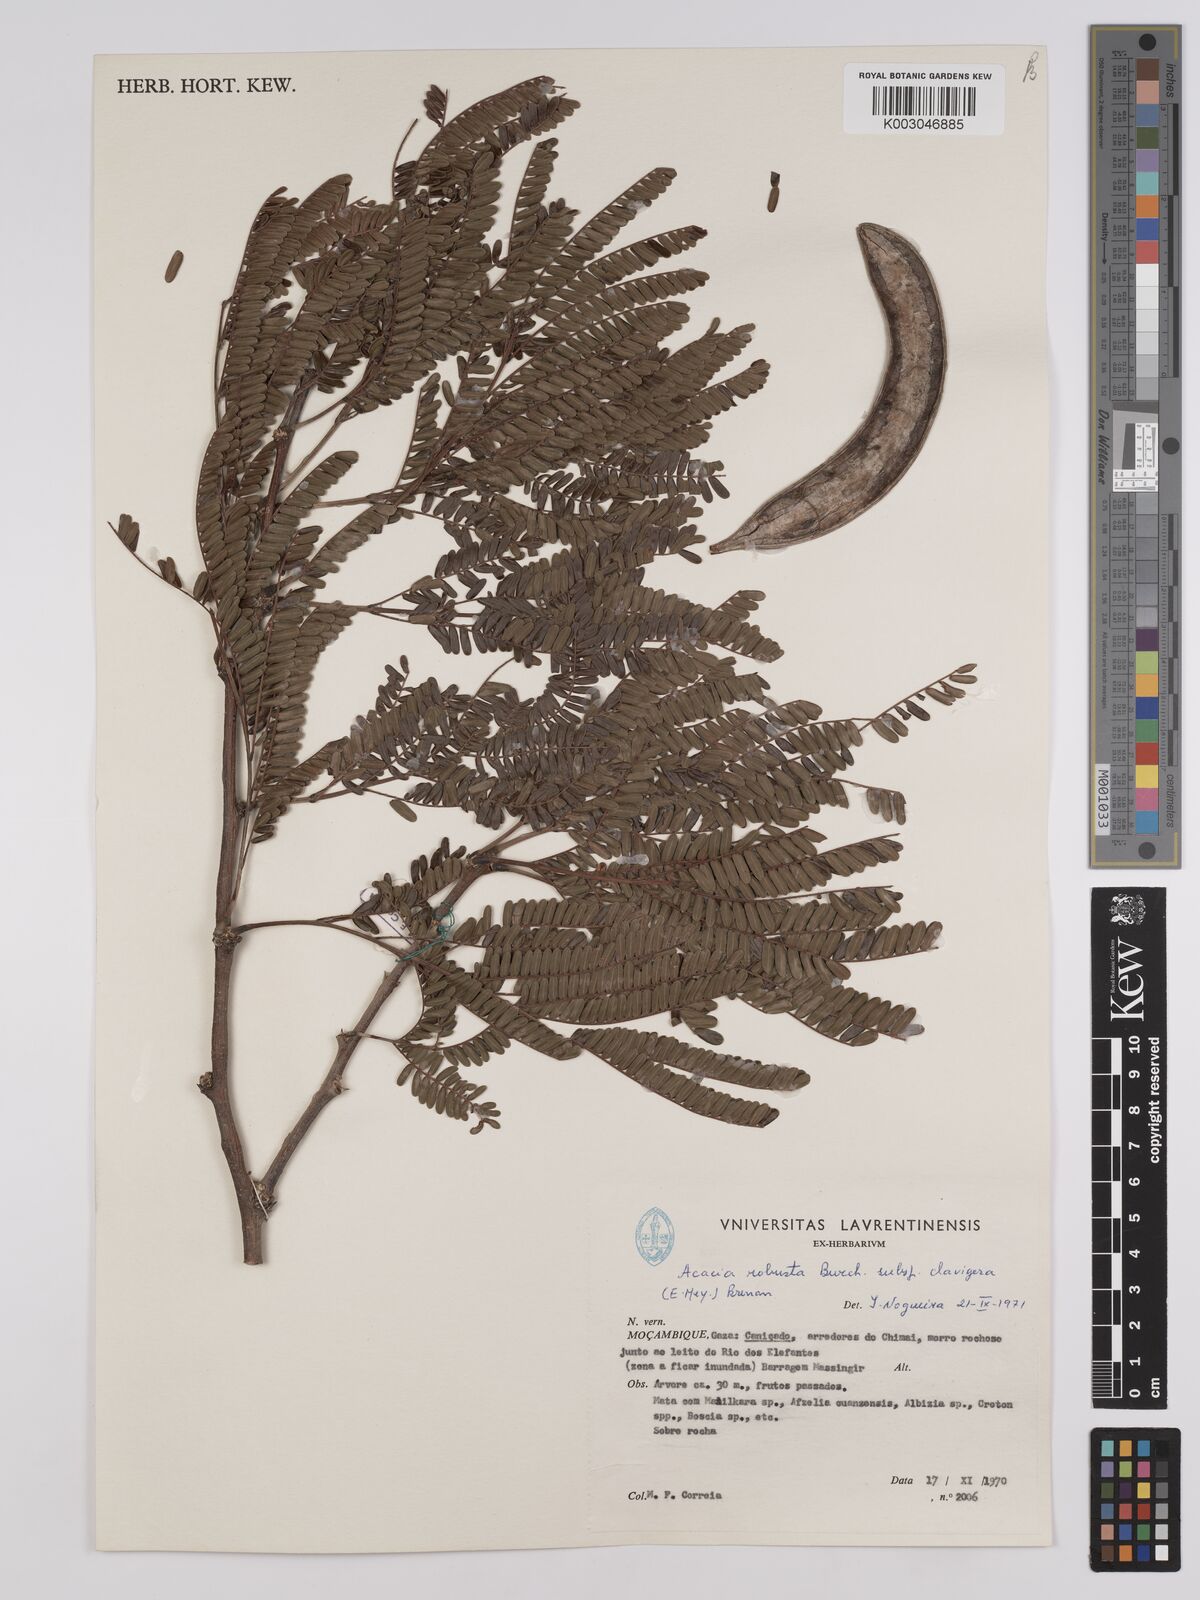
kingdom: Plantae
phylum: Tracheophyta
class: Magnoliopsida
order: Fabales
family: Fabaceae
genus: Vachellia
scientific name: Vachellia robusta
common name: Ankle thorn
